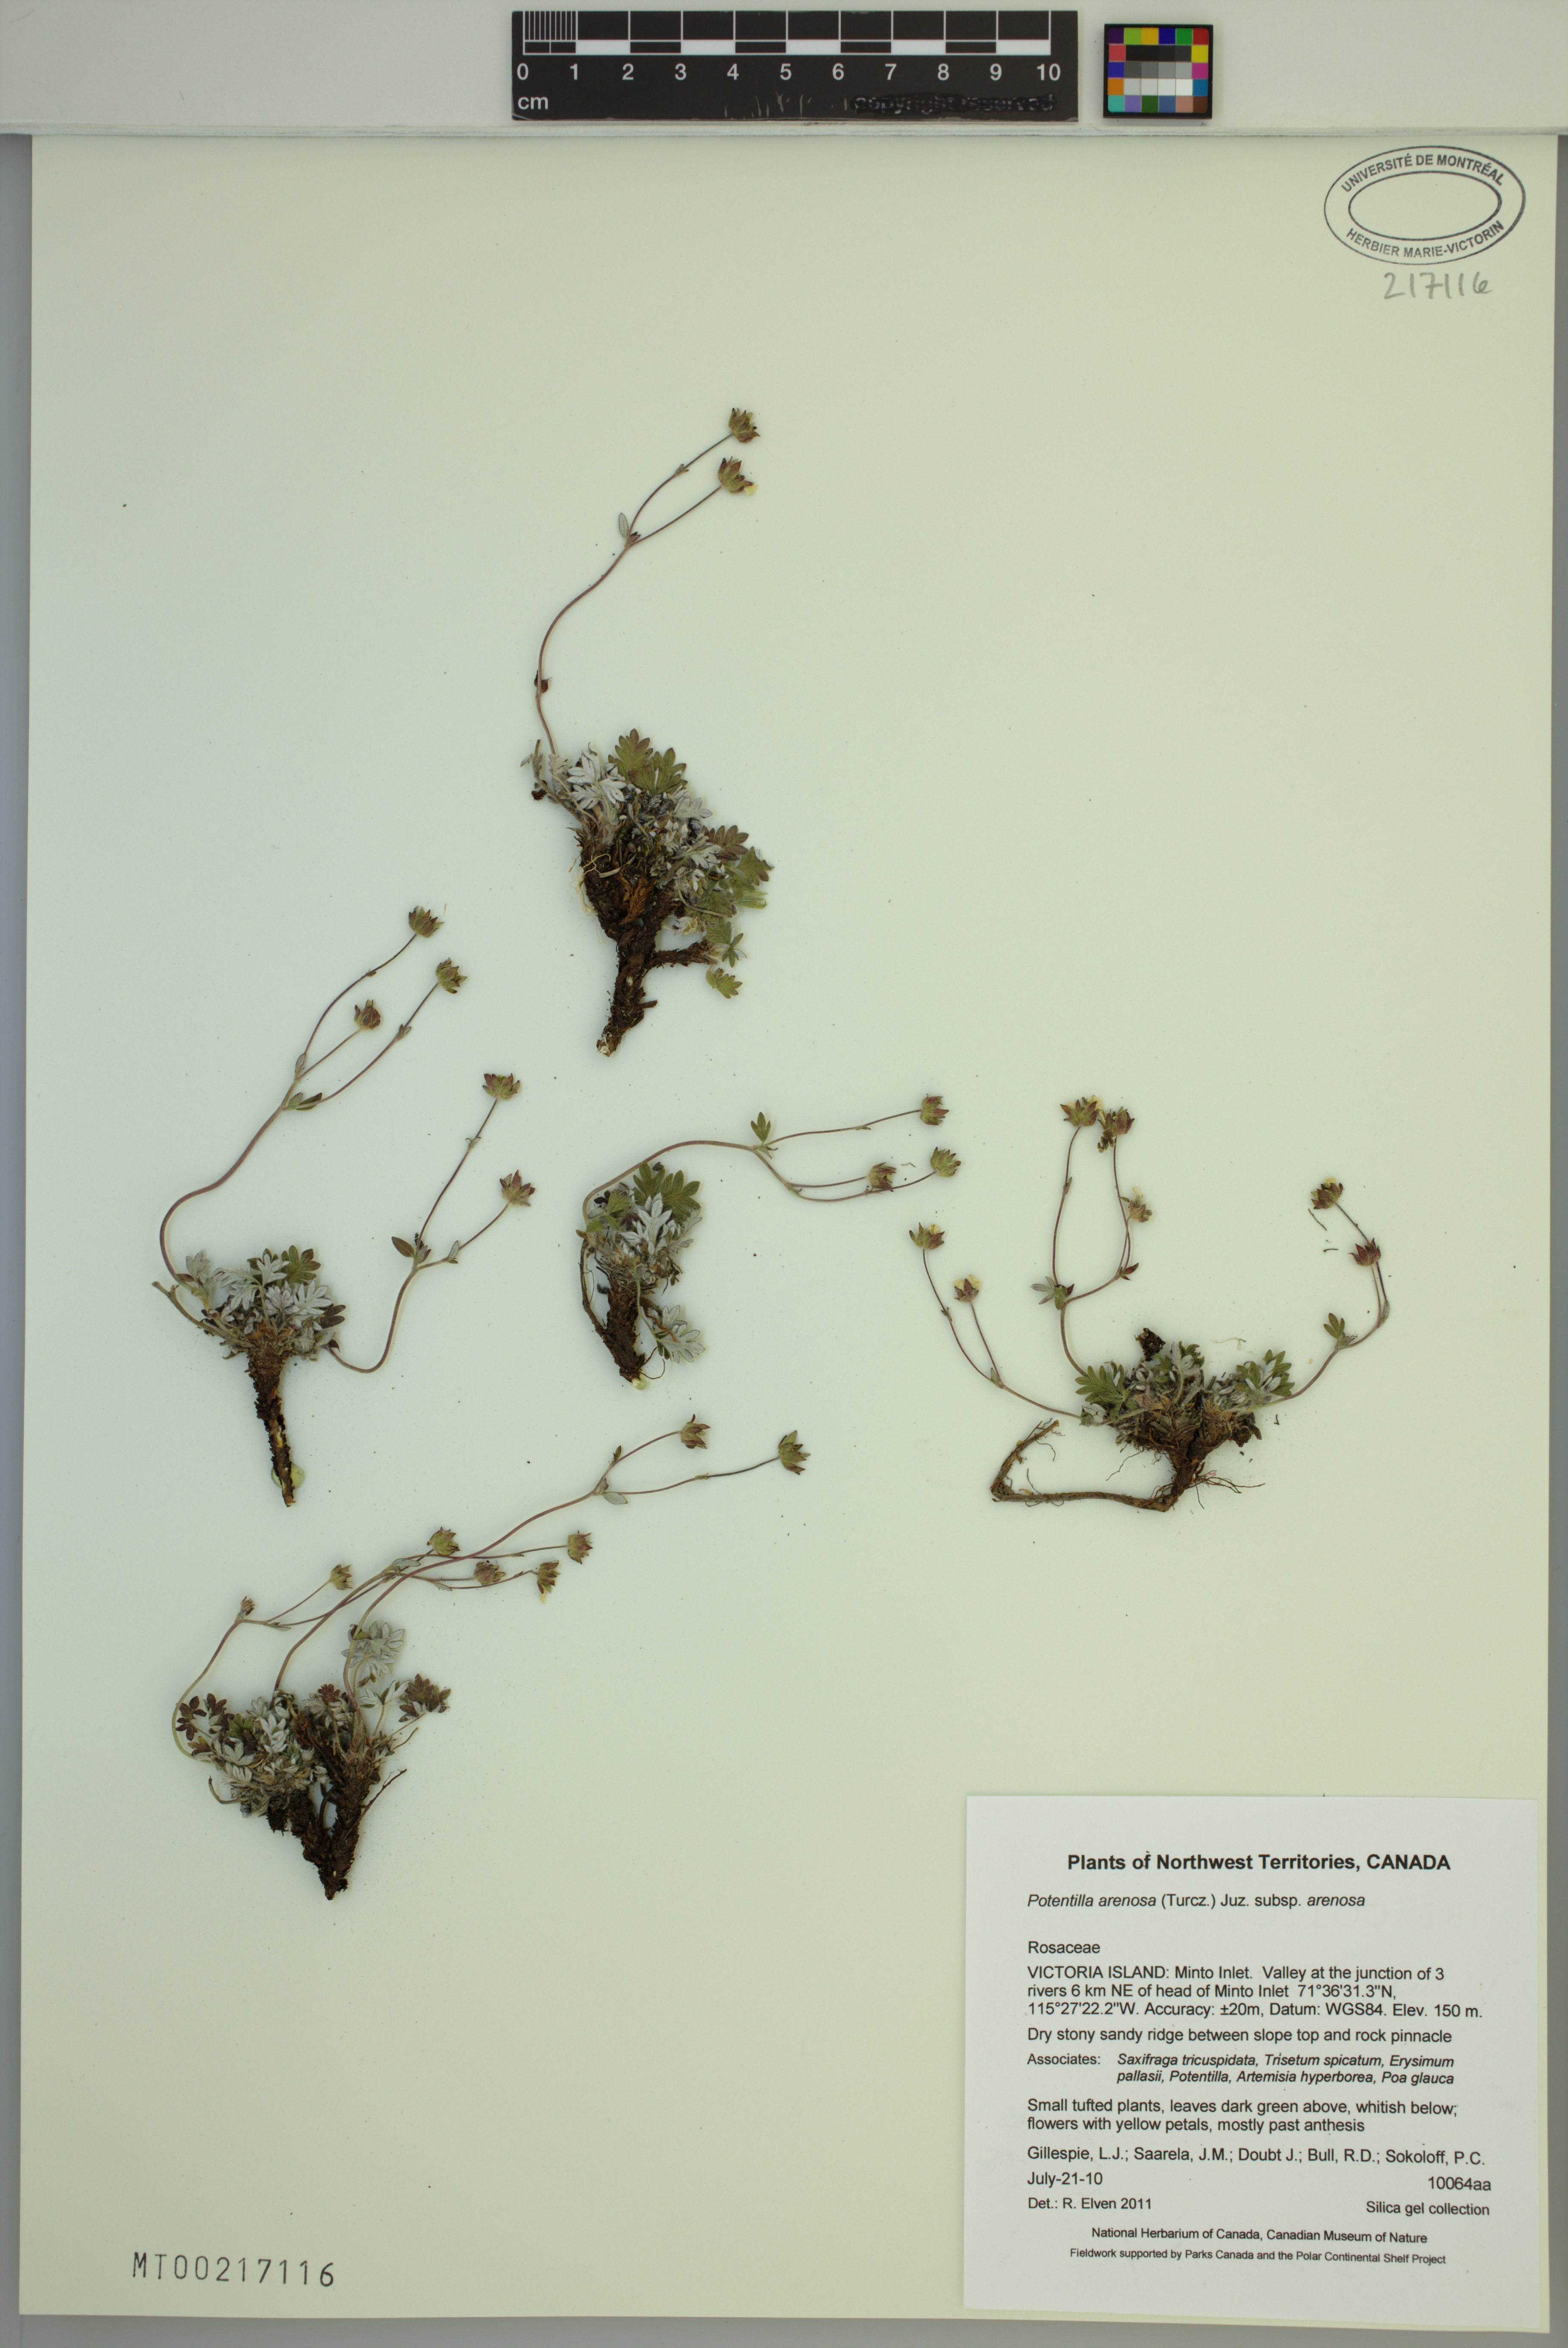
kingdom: Plantae
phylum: Tracheophyta
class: Magnoliopsida
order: Rosales
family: Rosaceae
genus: Potentilla
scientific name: Potentilla arenosa
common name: Bluff cinquefoil
